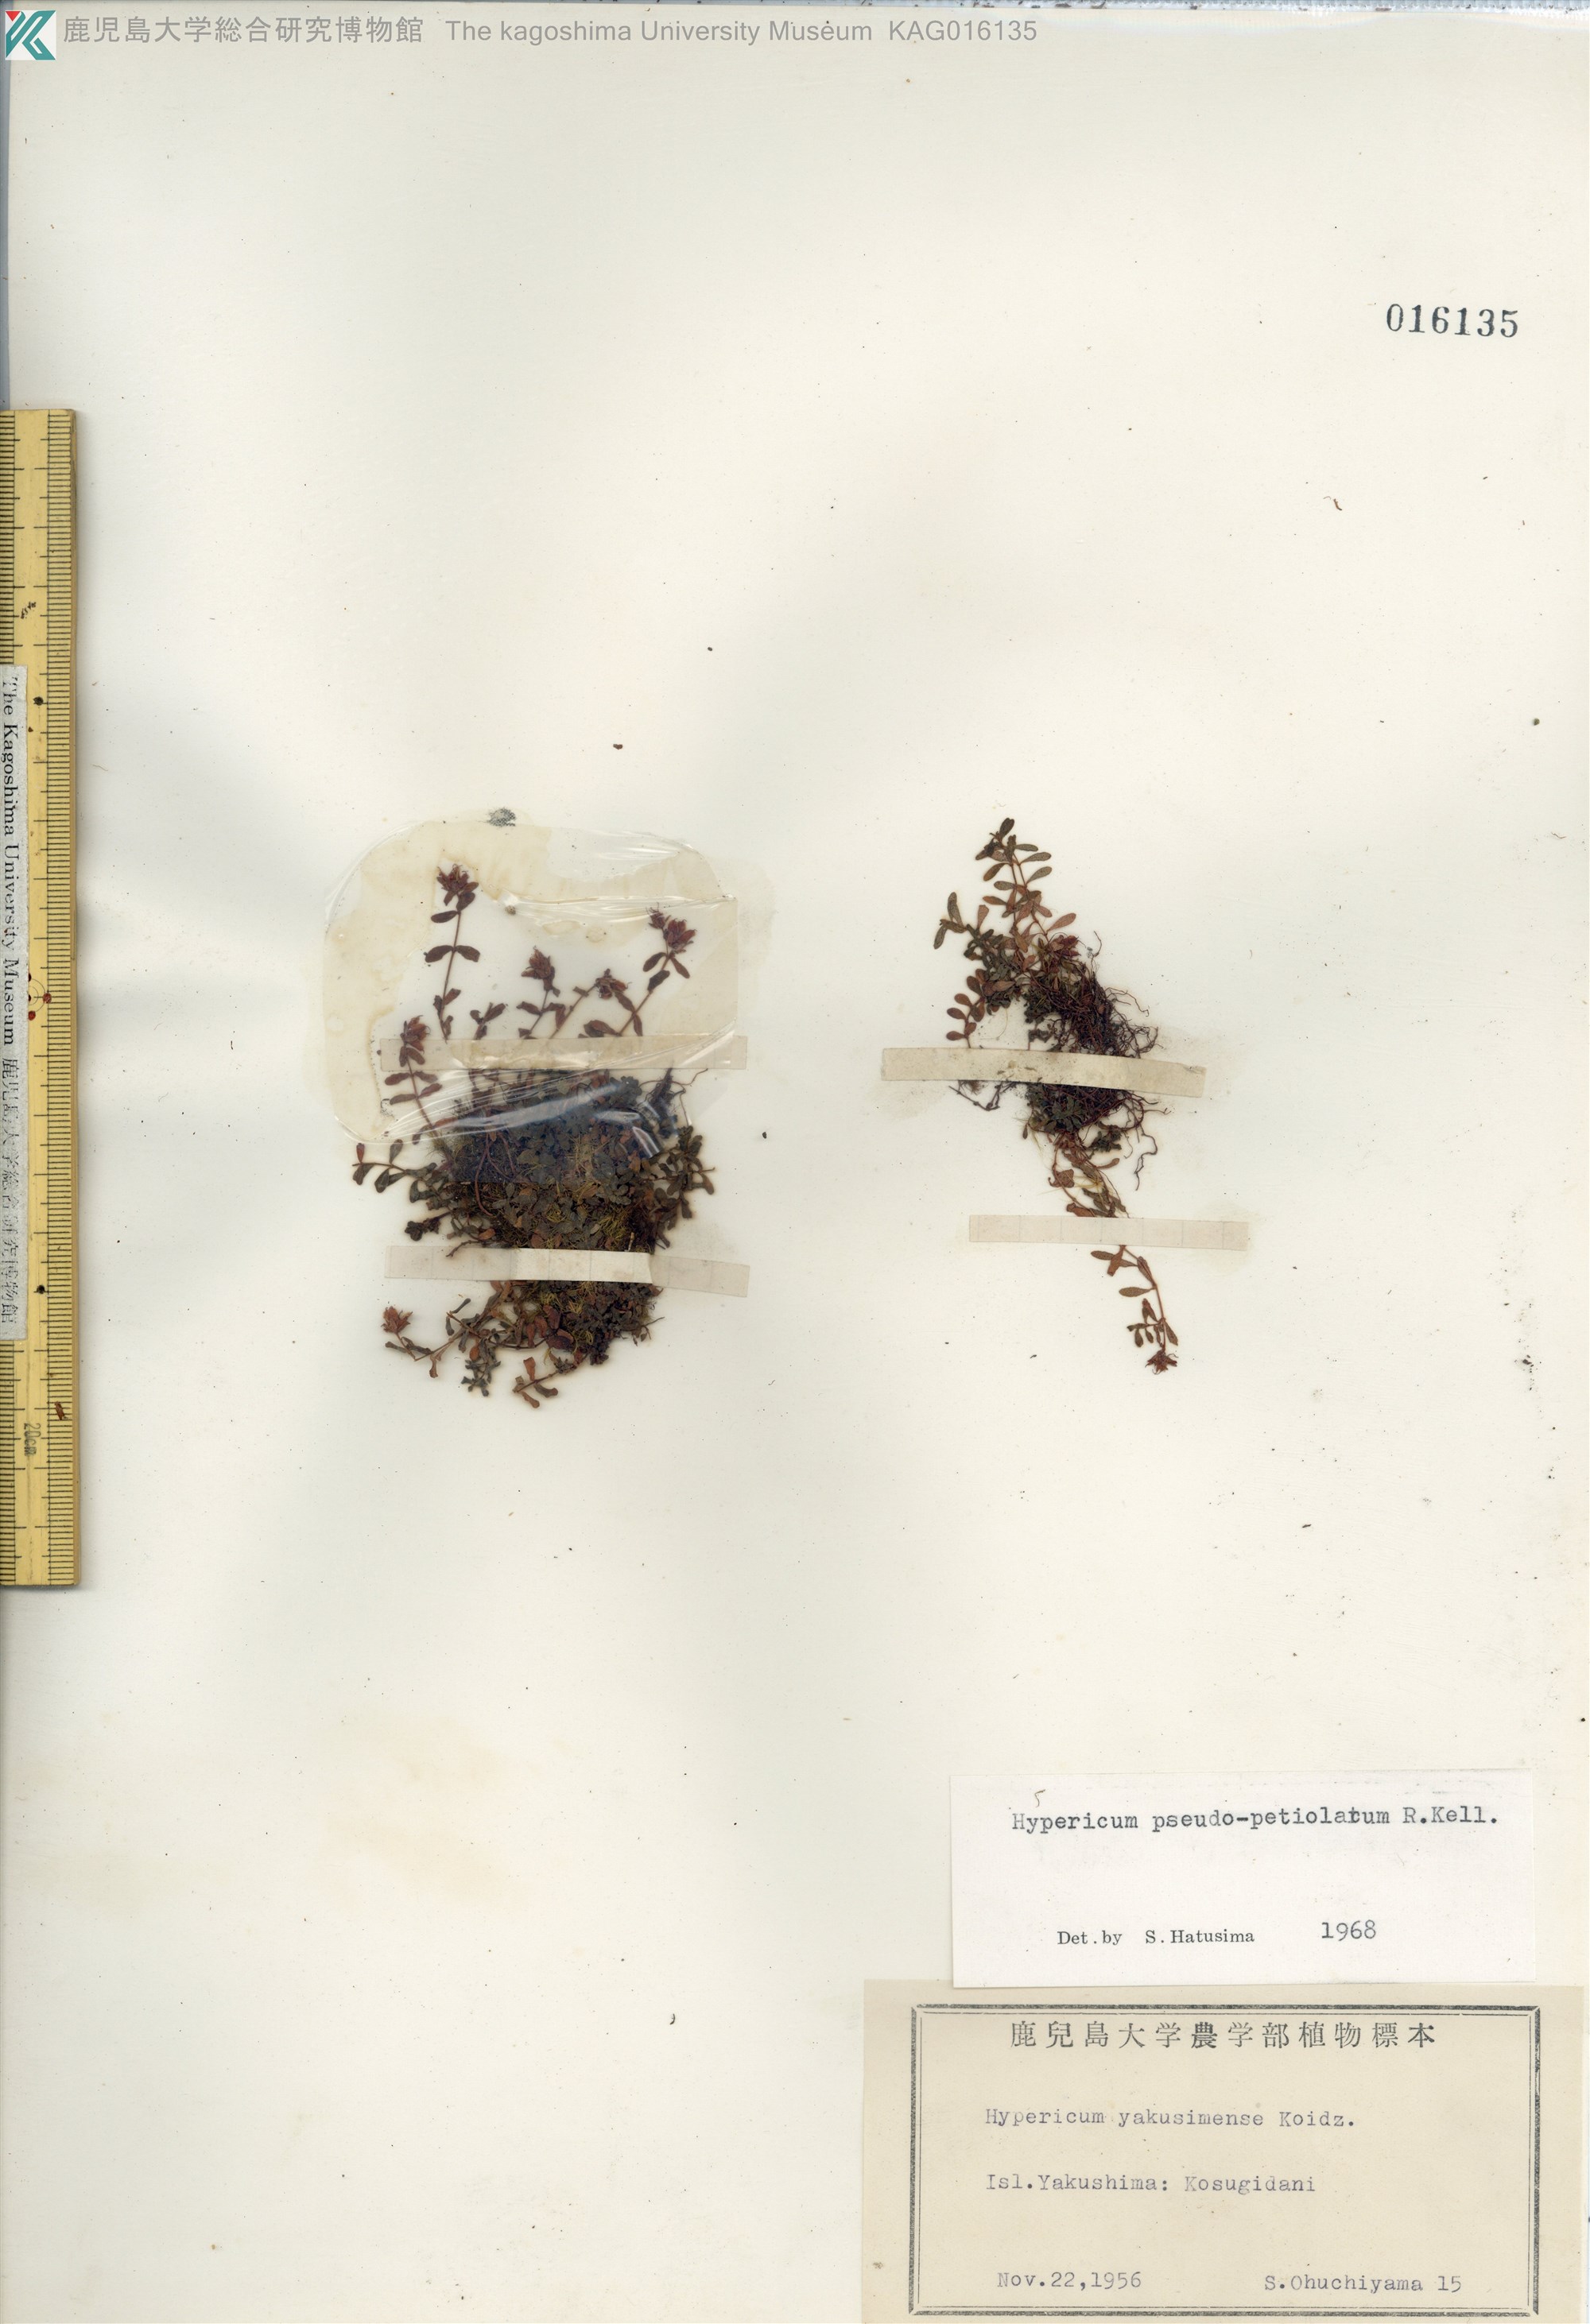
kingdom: Plantae
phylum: Tracheophyta
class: Magnoliopsida
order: Malpighiales
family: Hypericaceae
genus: Hypericum
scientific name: Hypericum pseudopetiolatum
